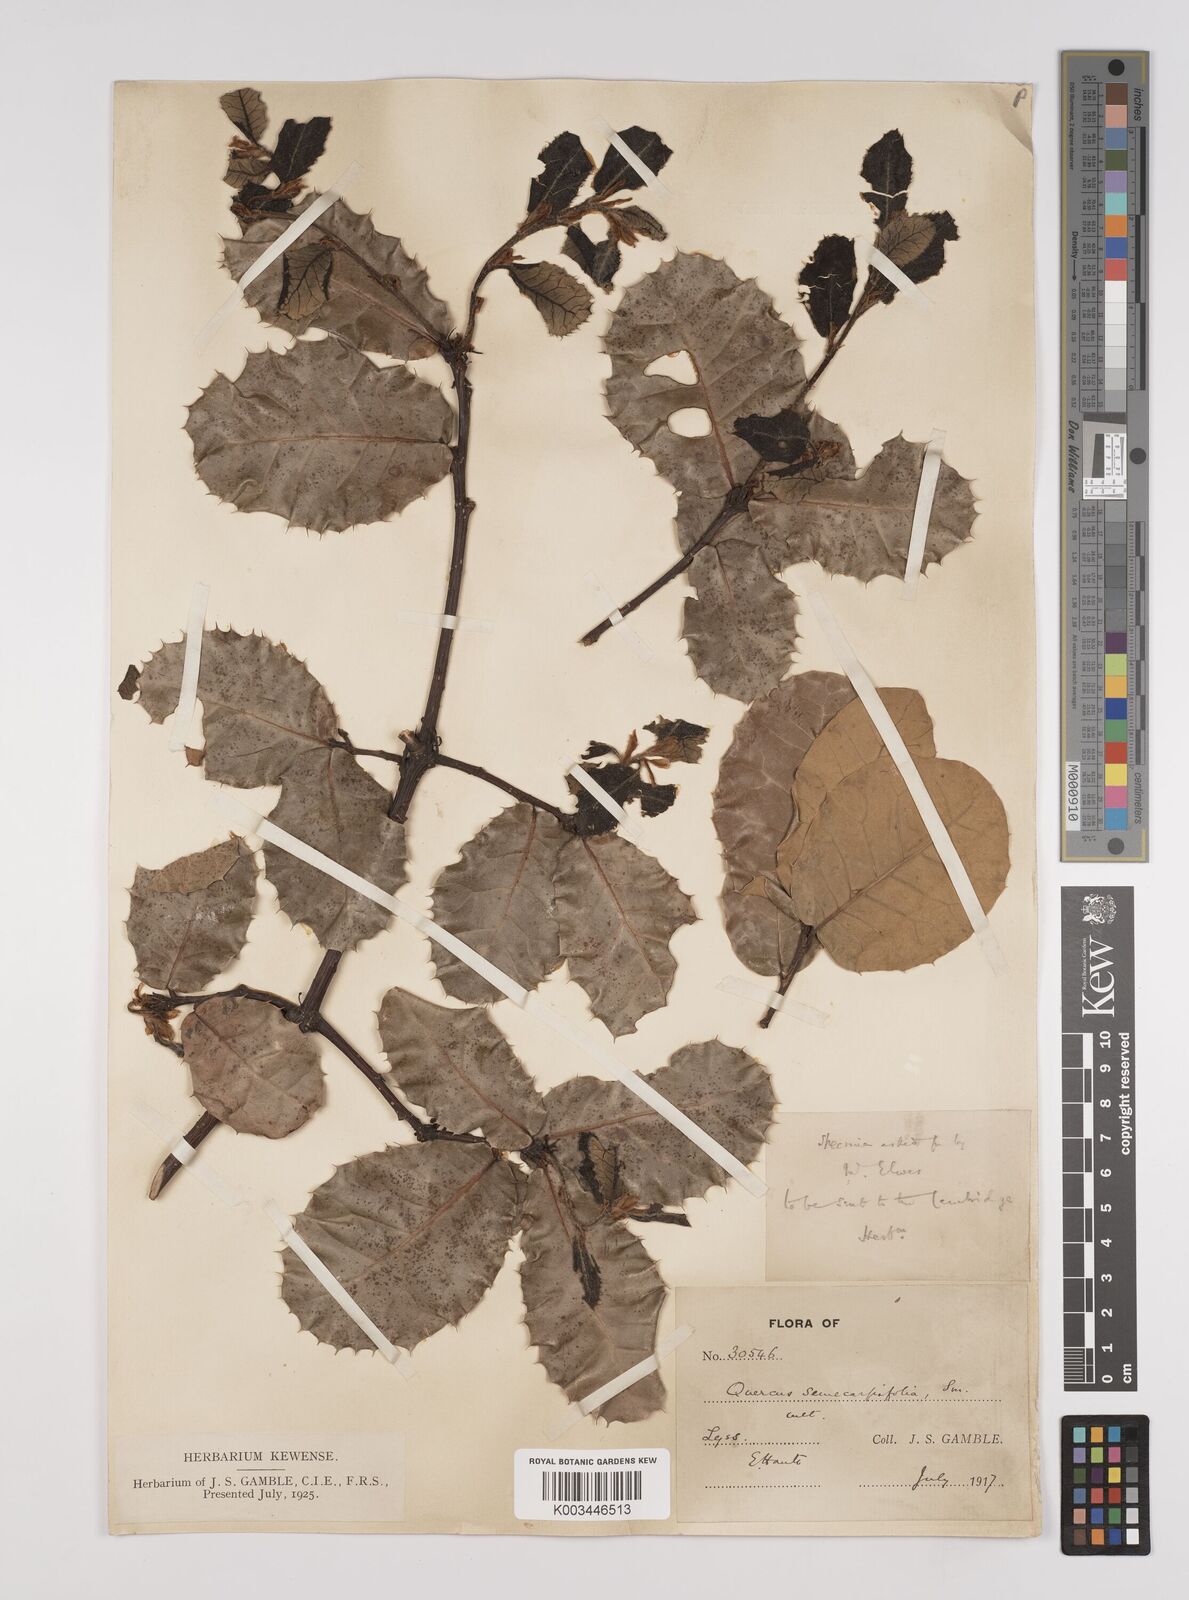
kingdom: Plantae
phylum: Tracheophyta
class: Magnoliopsida
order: Fagales
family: Fagaceae
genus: Quercus
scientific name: Quercus semecarpifolia
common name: Brown oak
